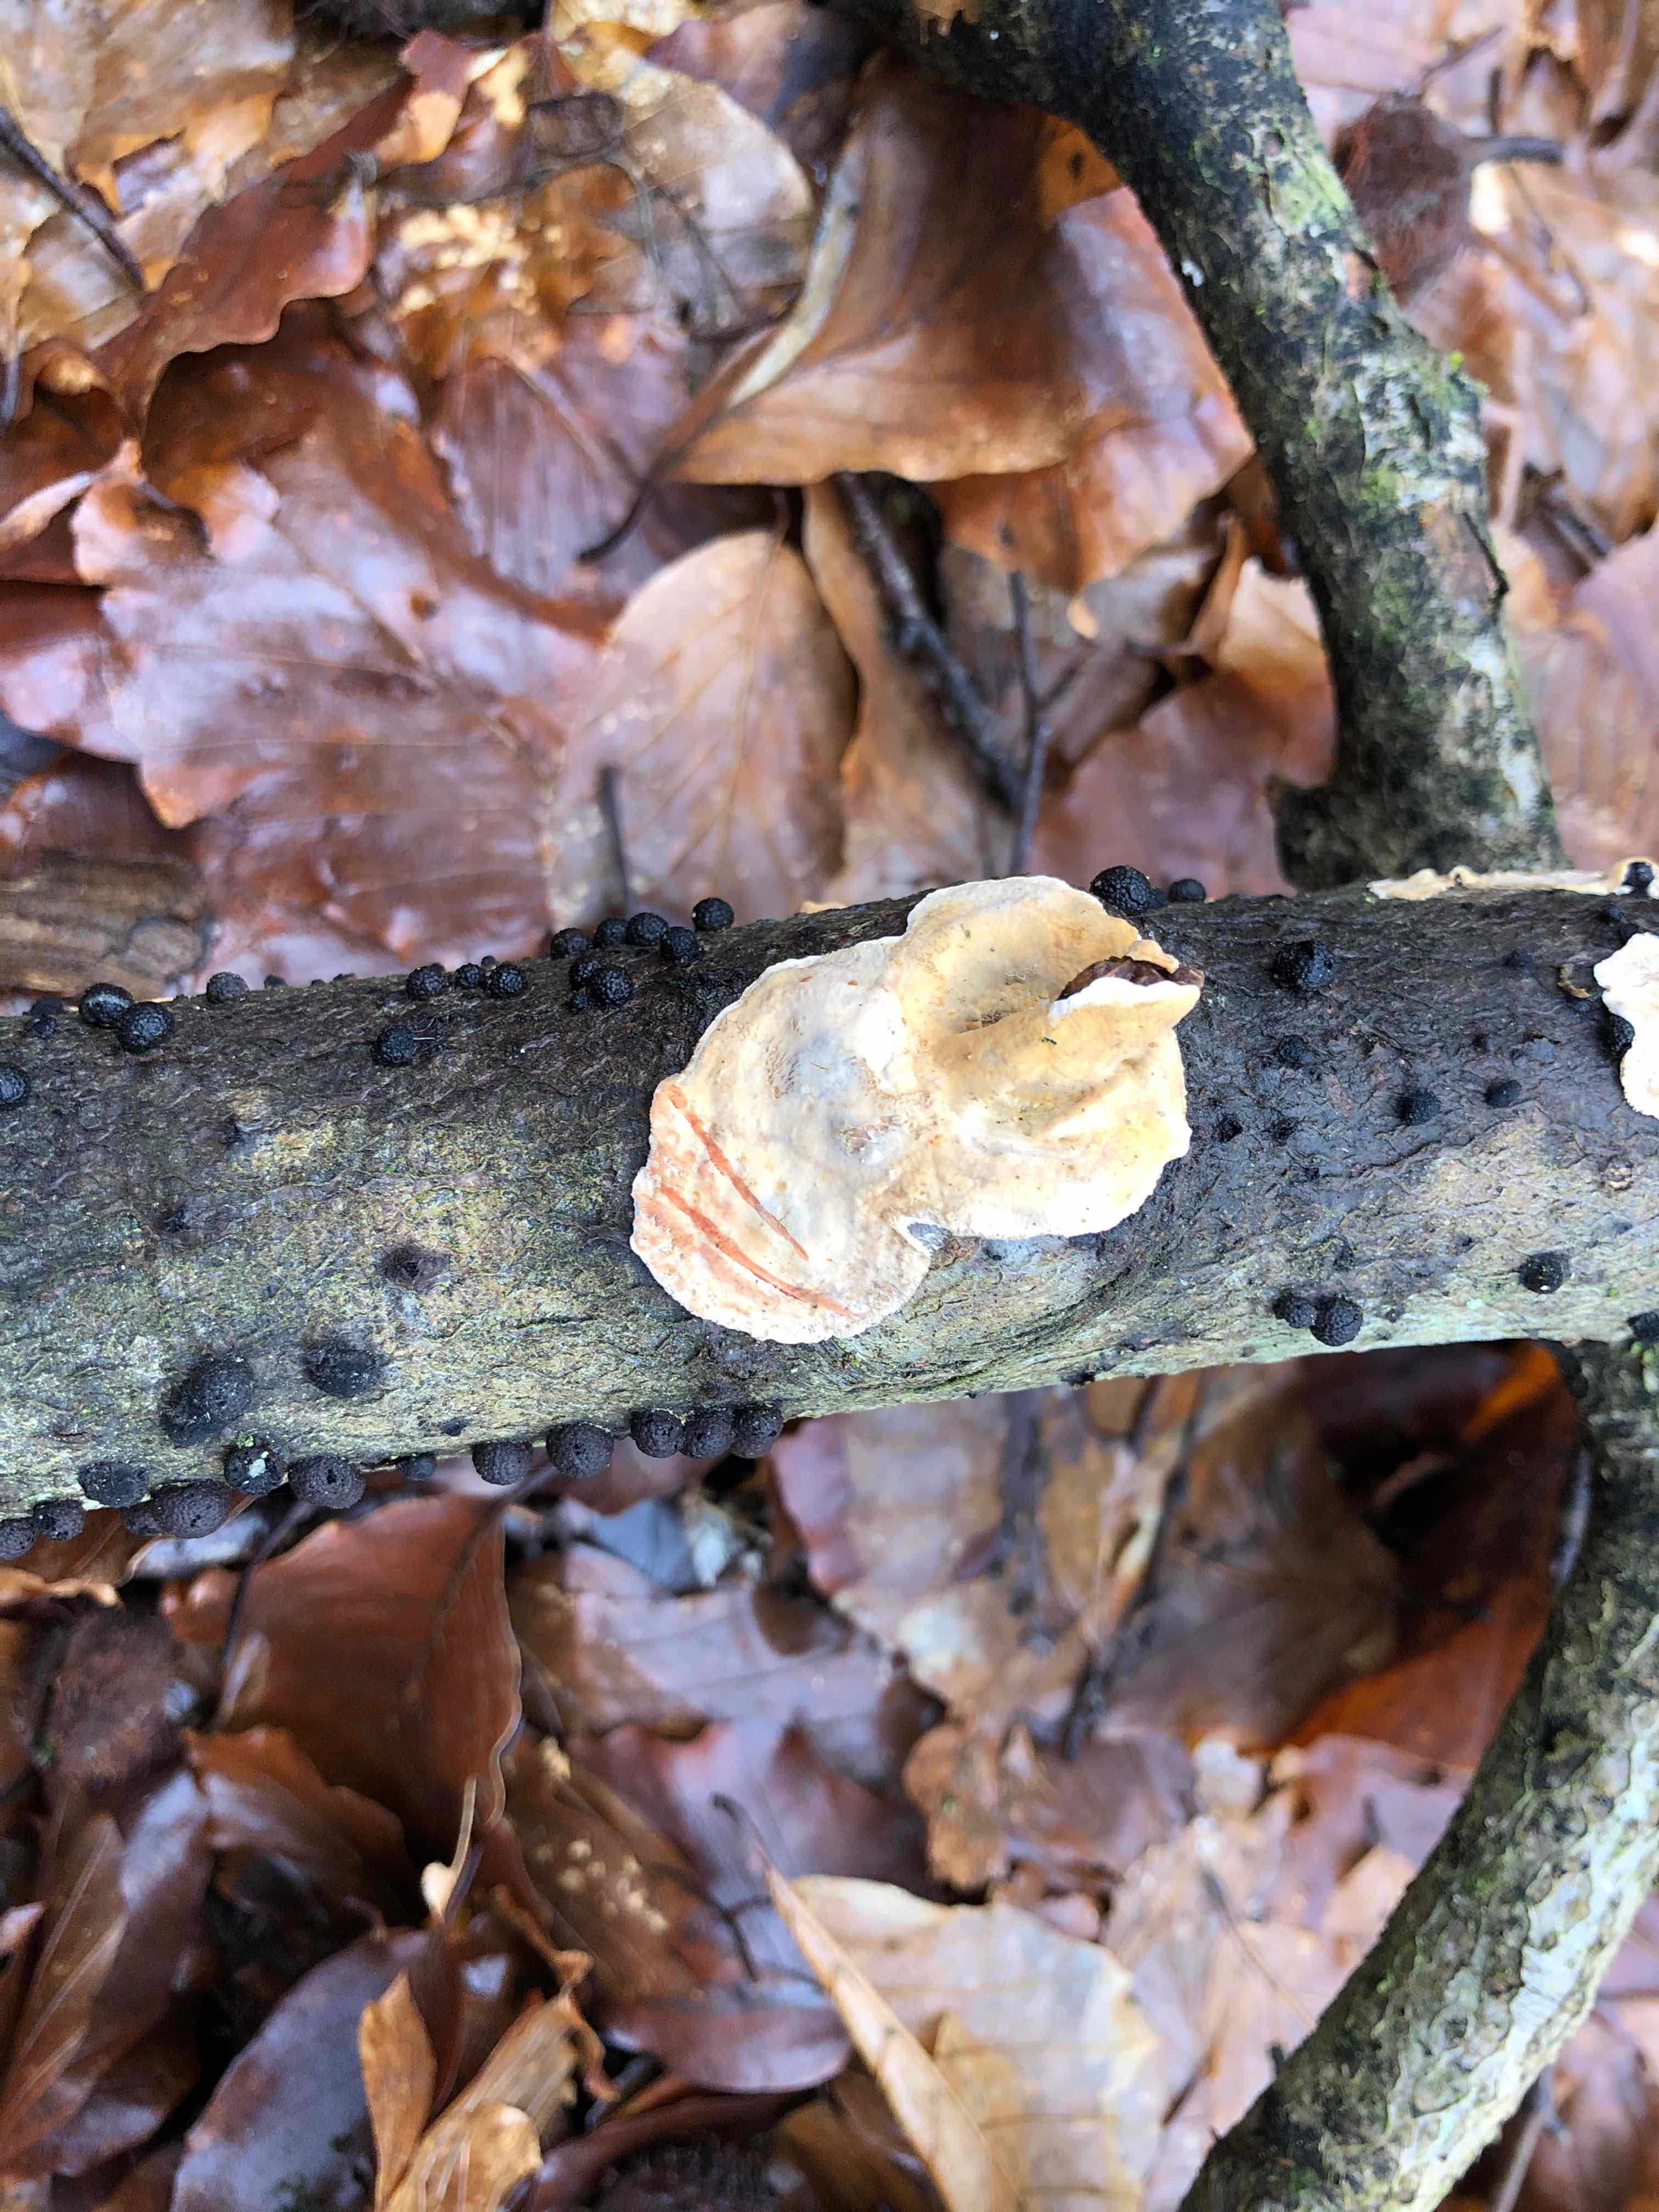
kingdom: Fungi
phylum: Basidiomycota
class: Agaricomycetes
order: Russulales
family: Stereaceae
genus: Stereum
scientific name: Stereum rugosum
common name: rynket lædersvamp
